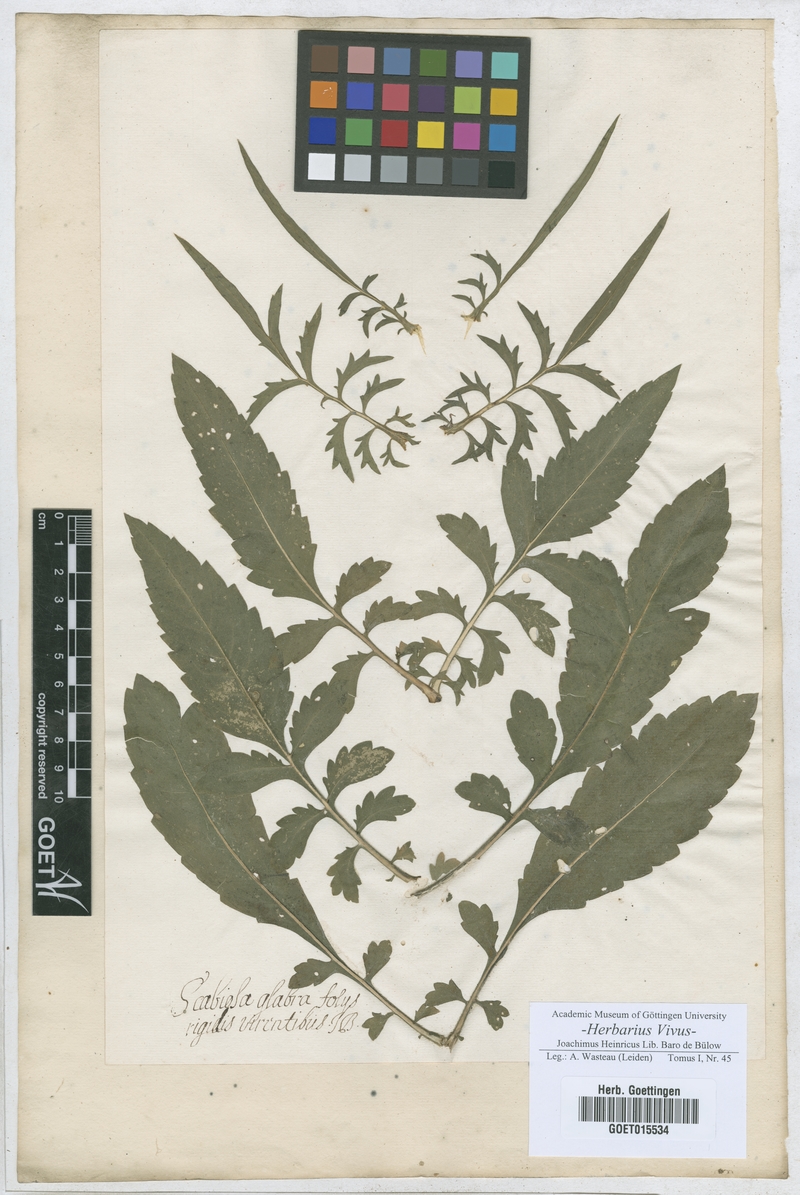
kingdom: Plantae
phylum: Tracheophyta
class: Magnoliopsida
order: Dipsacales
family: Caprifoliaceae
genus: Scabiosa
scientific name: Scabiosa
